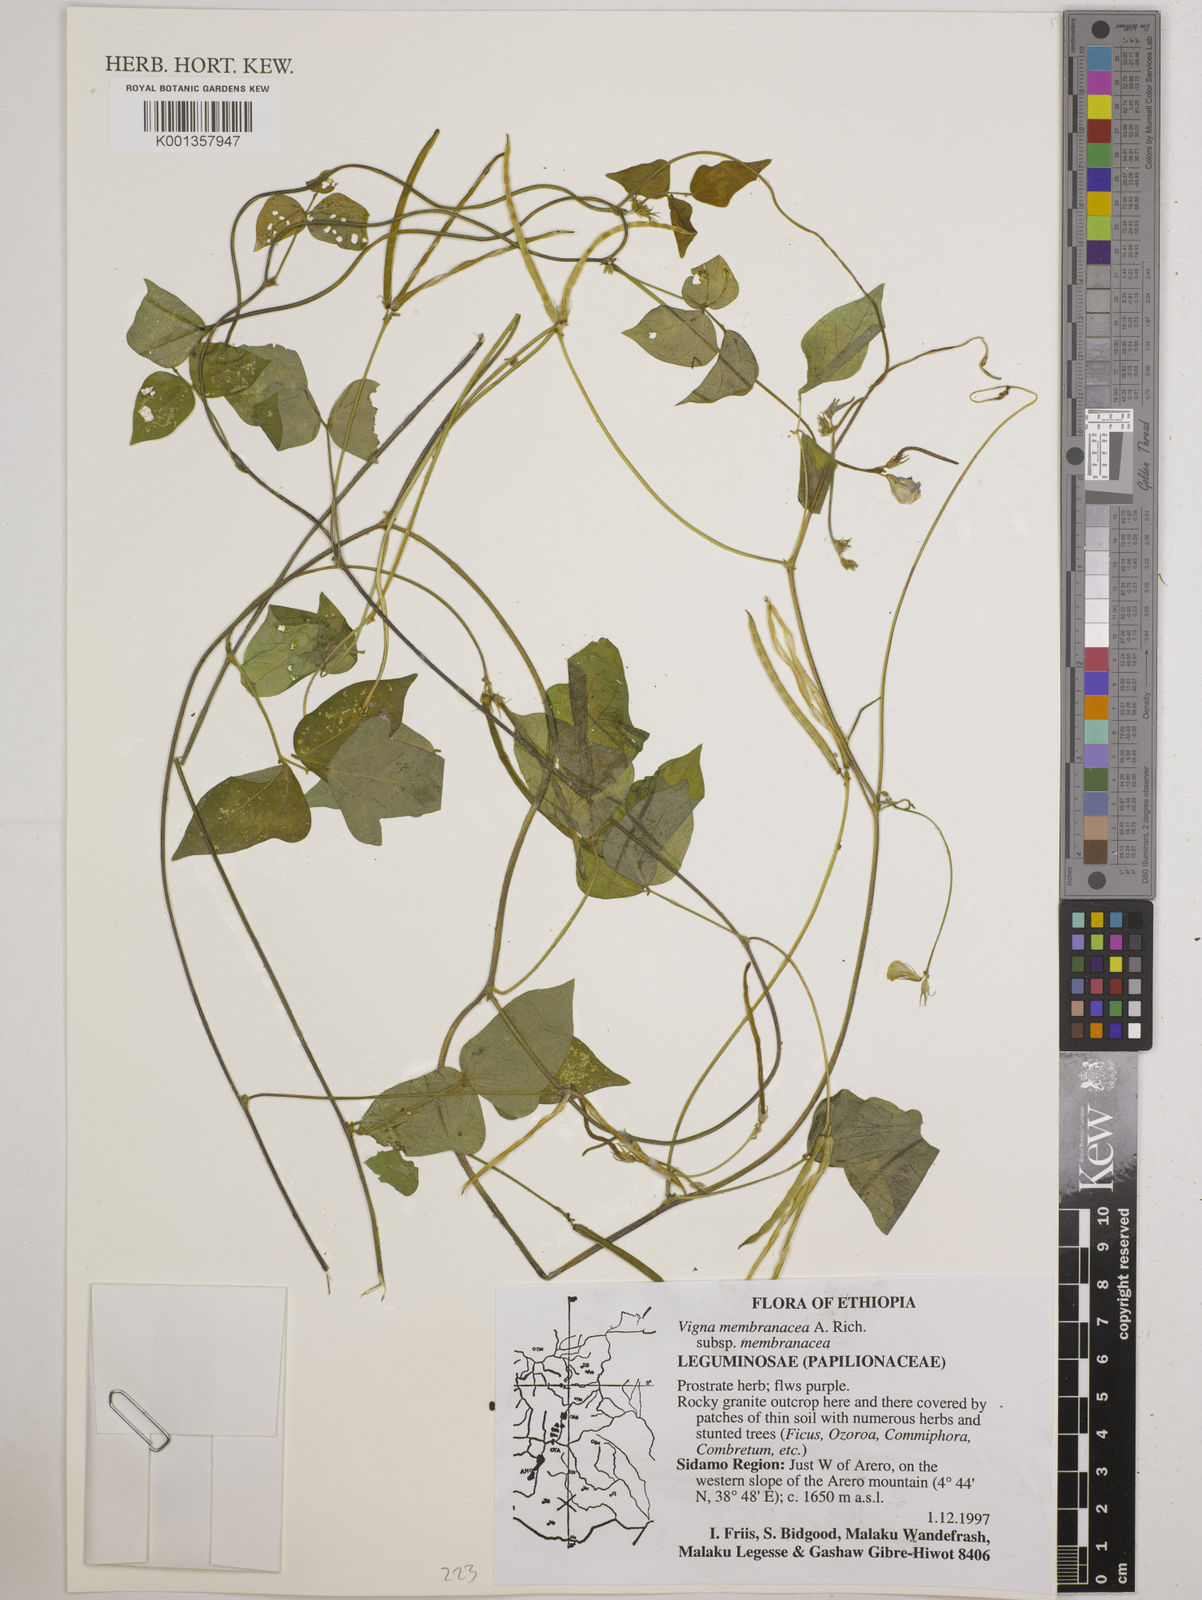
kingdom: Plantae
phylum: Tracheophyta
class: Magnoliopsida
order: Fabales
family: Fabaceae
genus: Vigna
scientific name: Vigna membranacea
